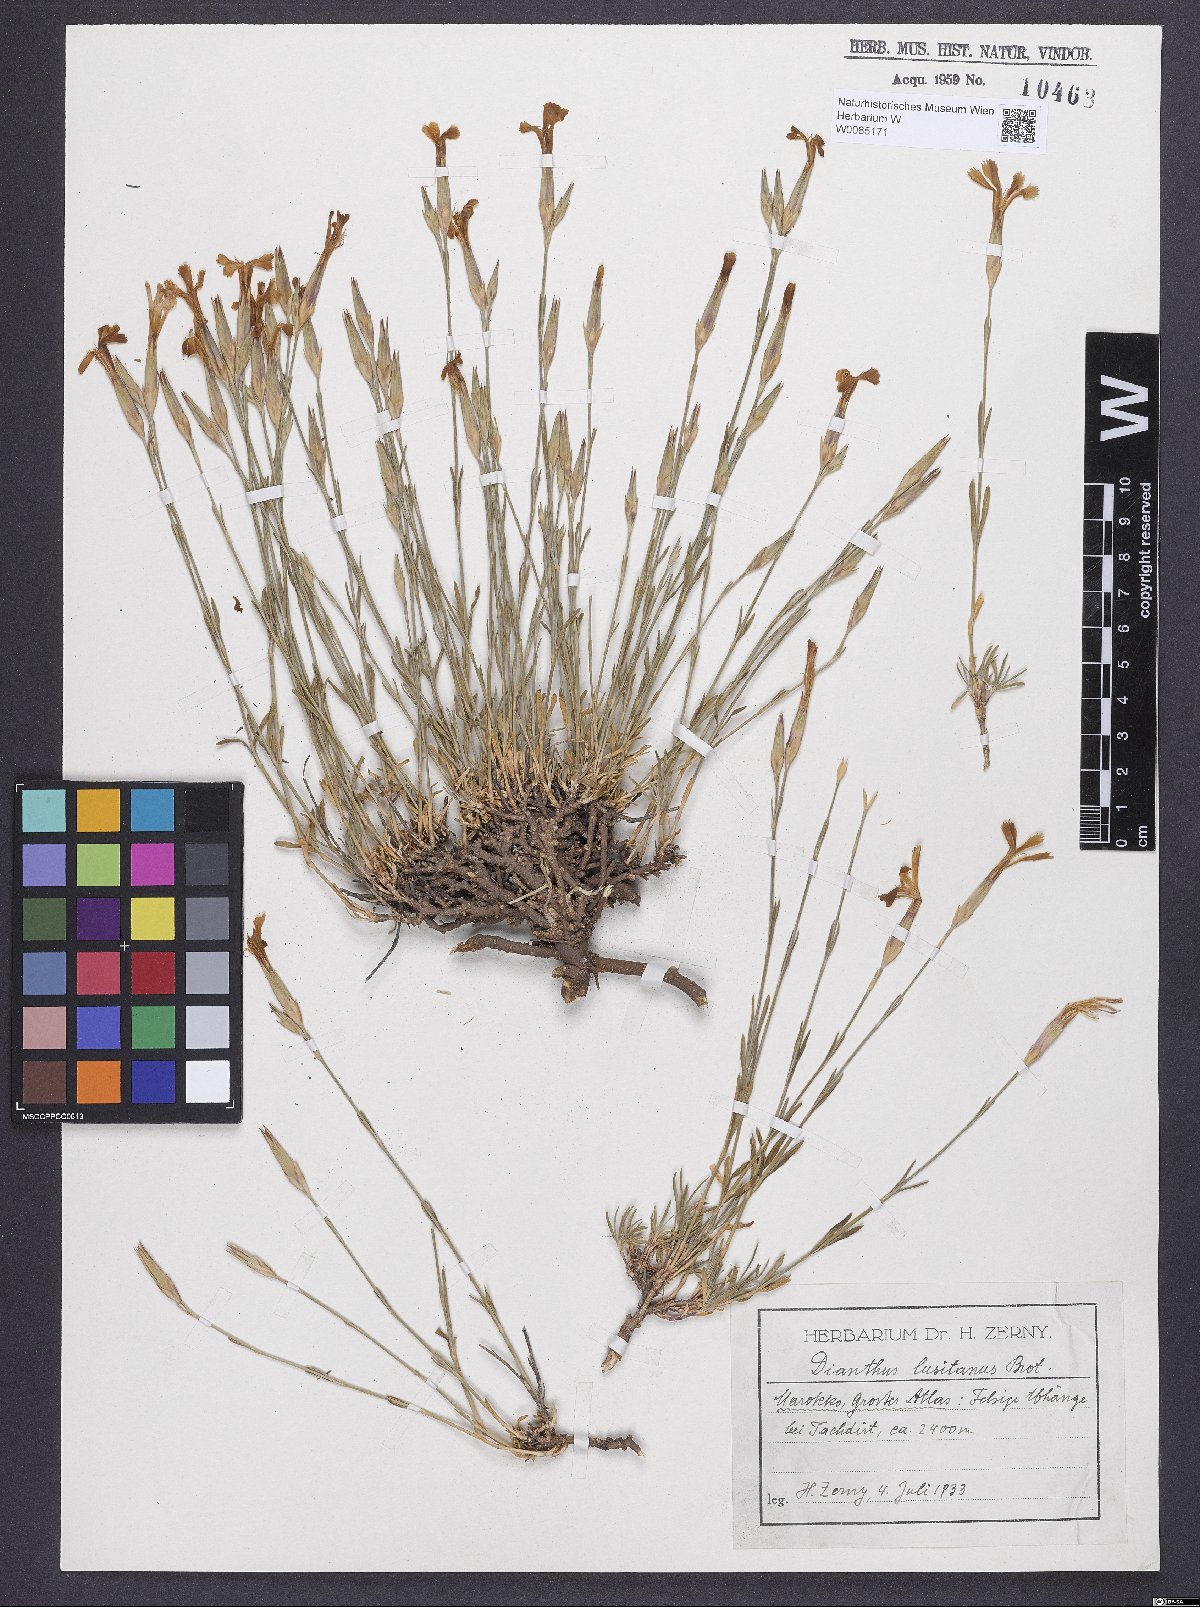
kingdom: Plantae
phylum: Tracheophyta
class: Magnoliopsida
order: Caryophyllales
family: Caryophyllaceae
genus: Dianthus
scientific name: Dianthus lusitanus
